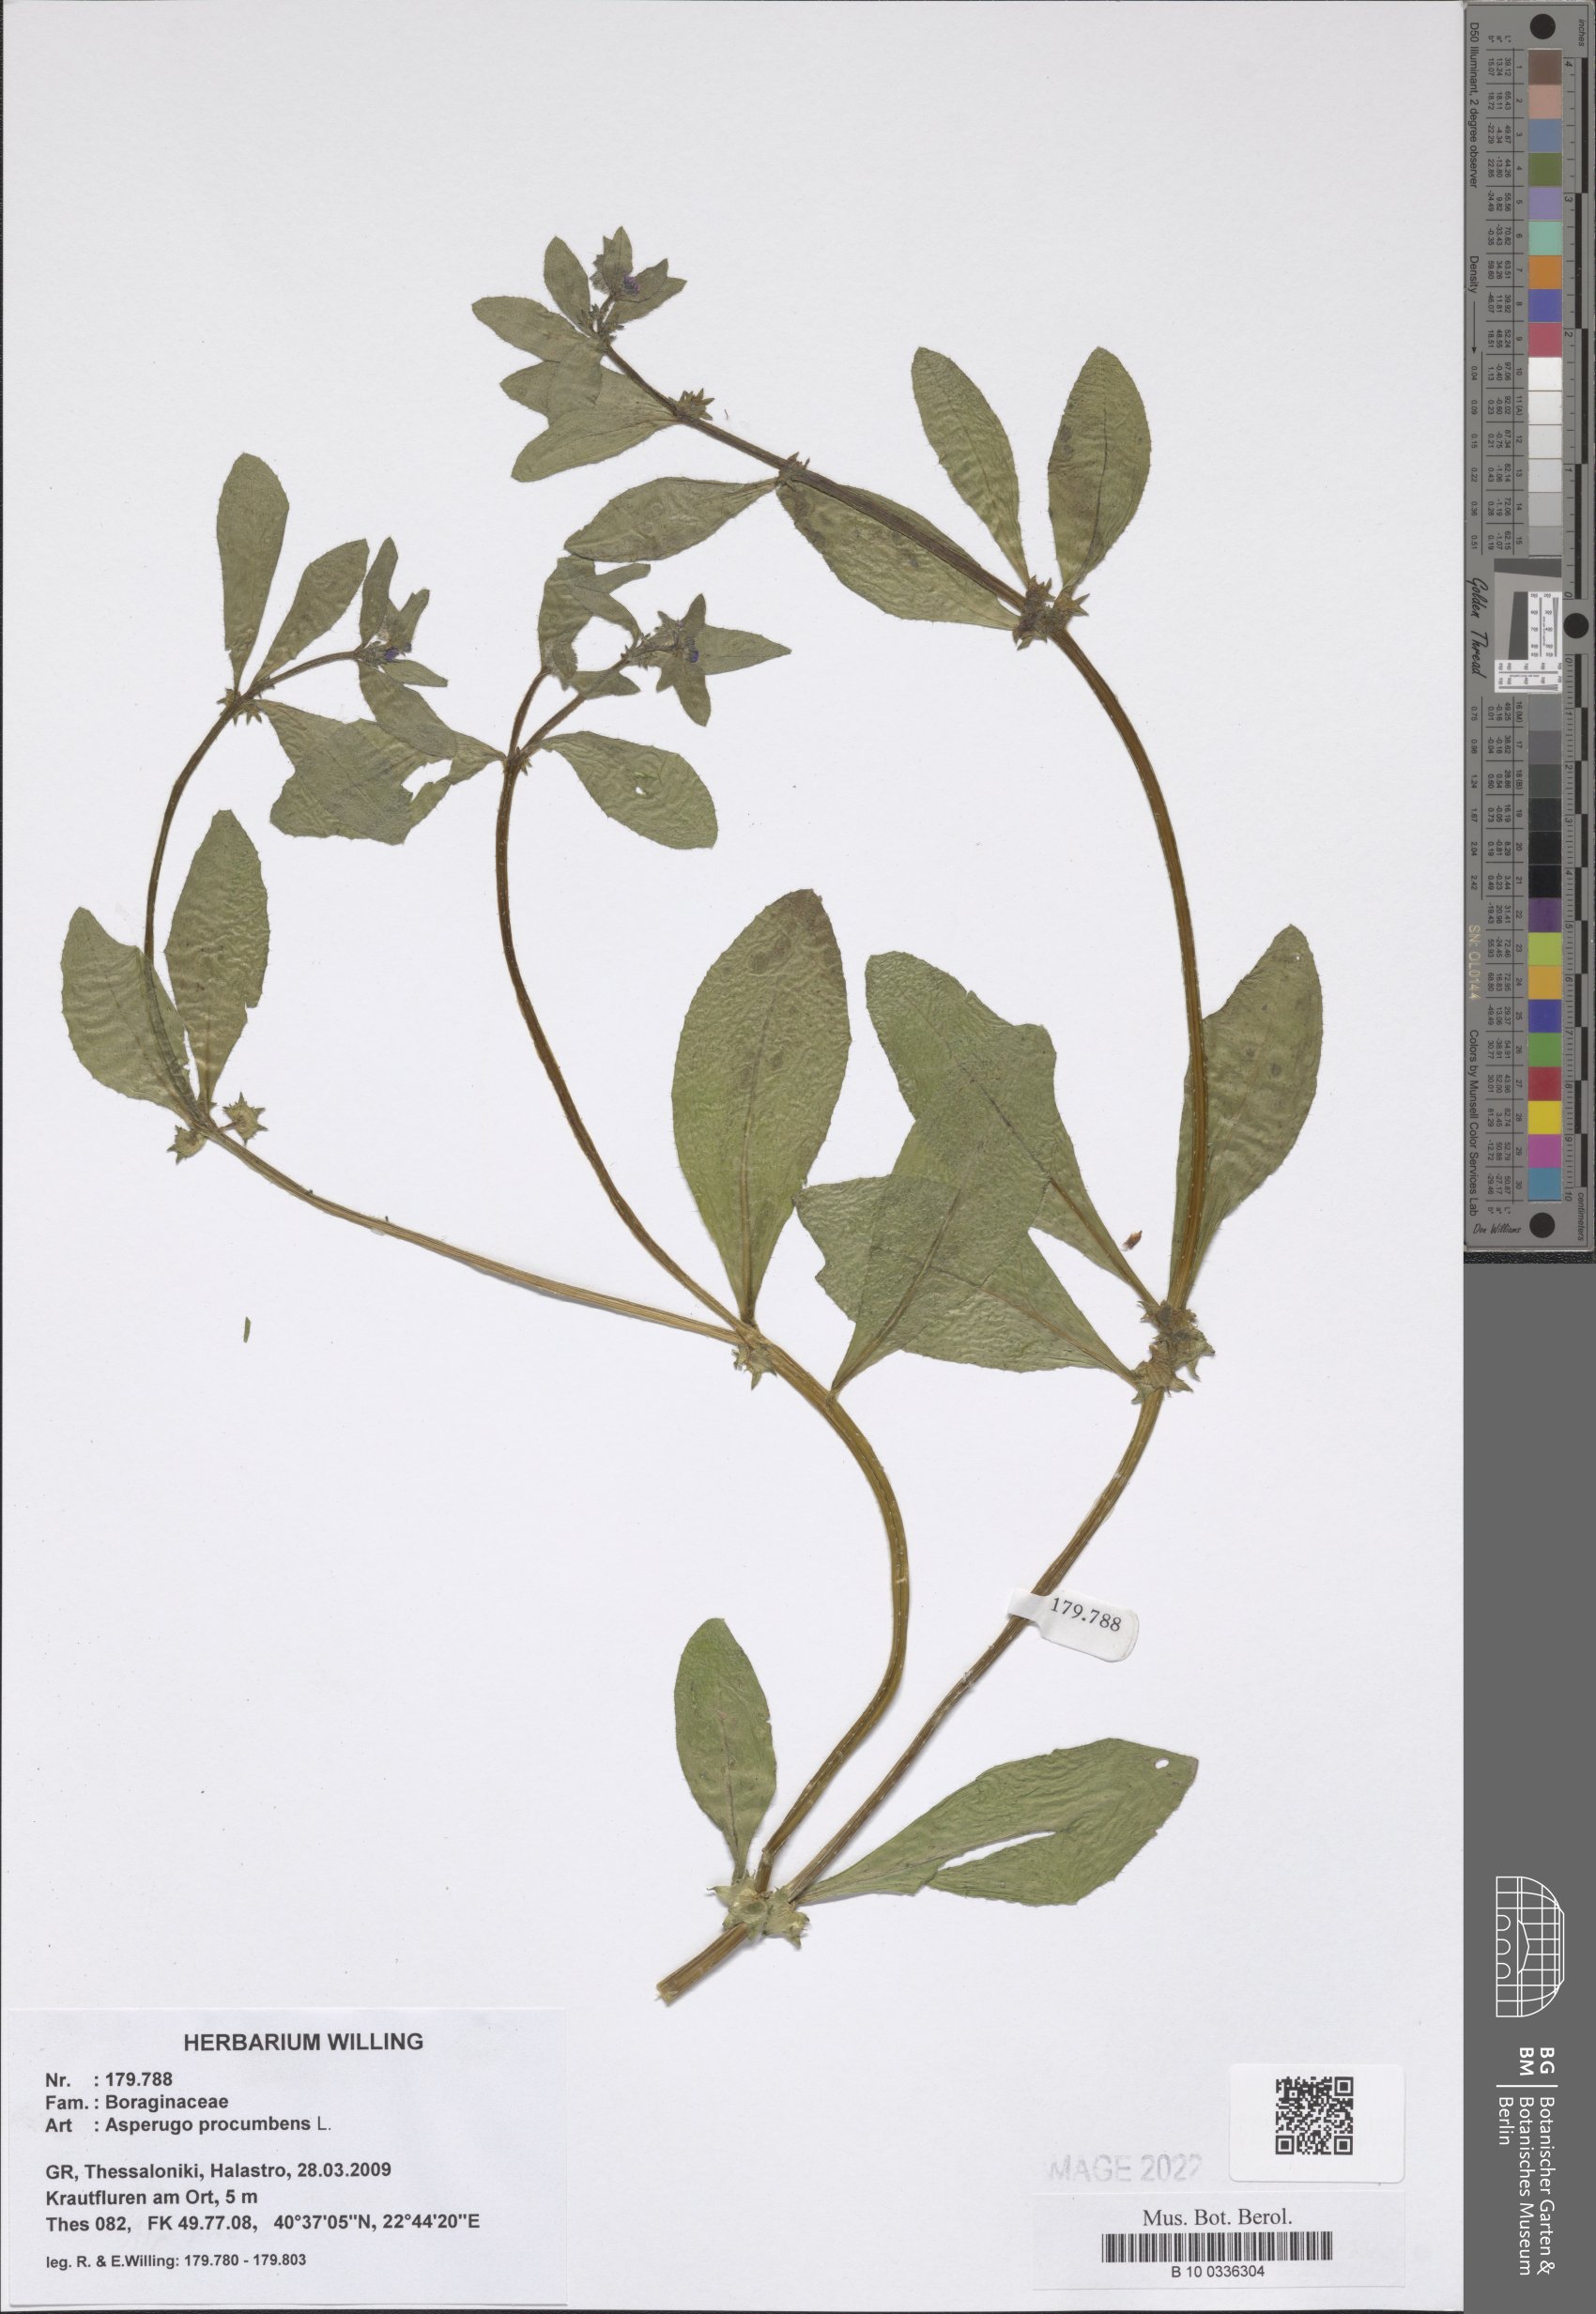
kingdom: Plantae
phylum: Tracheophyta
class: Magnoliopsida
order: Boraginales
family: Boraginaceae
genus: Asperugo
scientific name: Asperugo procumbens
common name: Madwort
